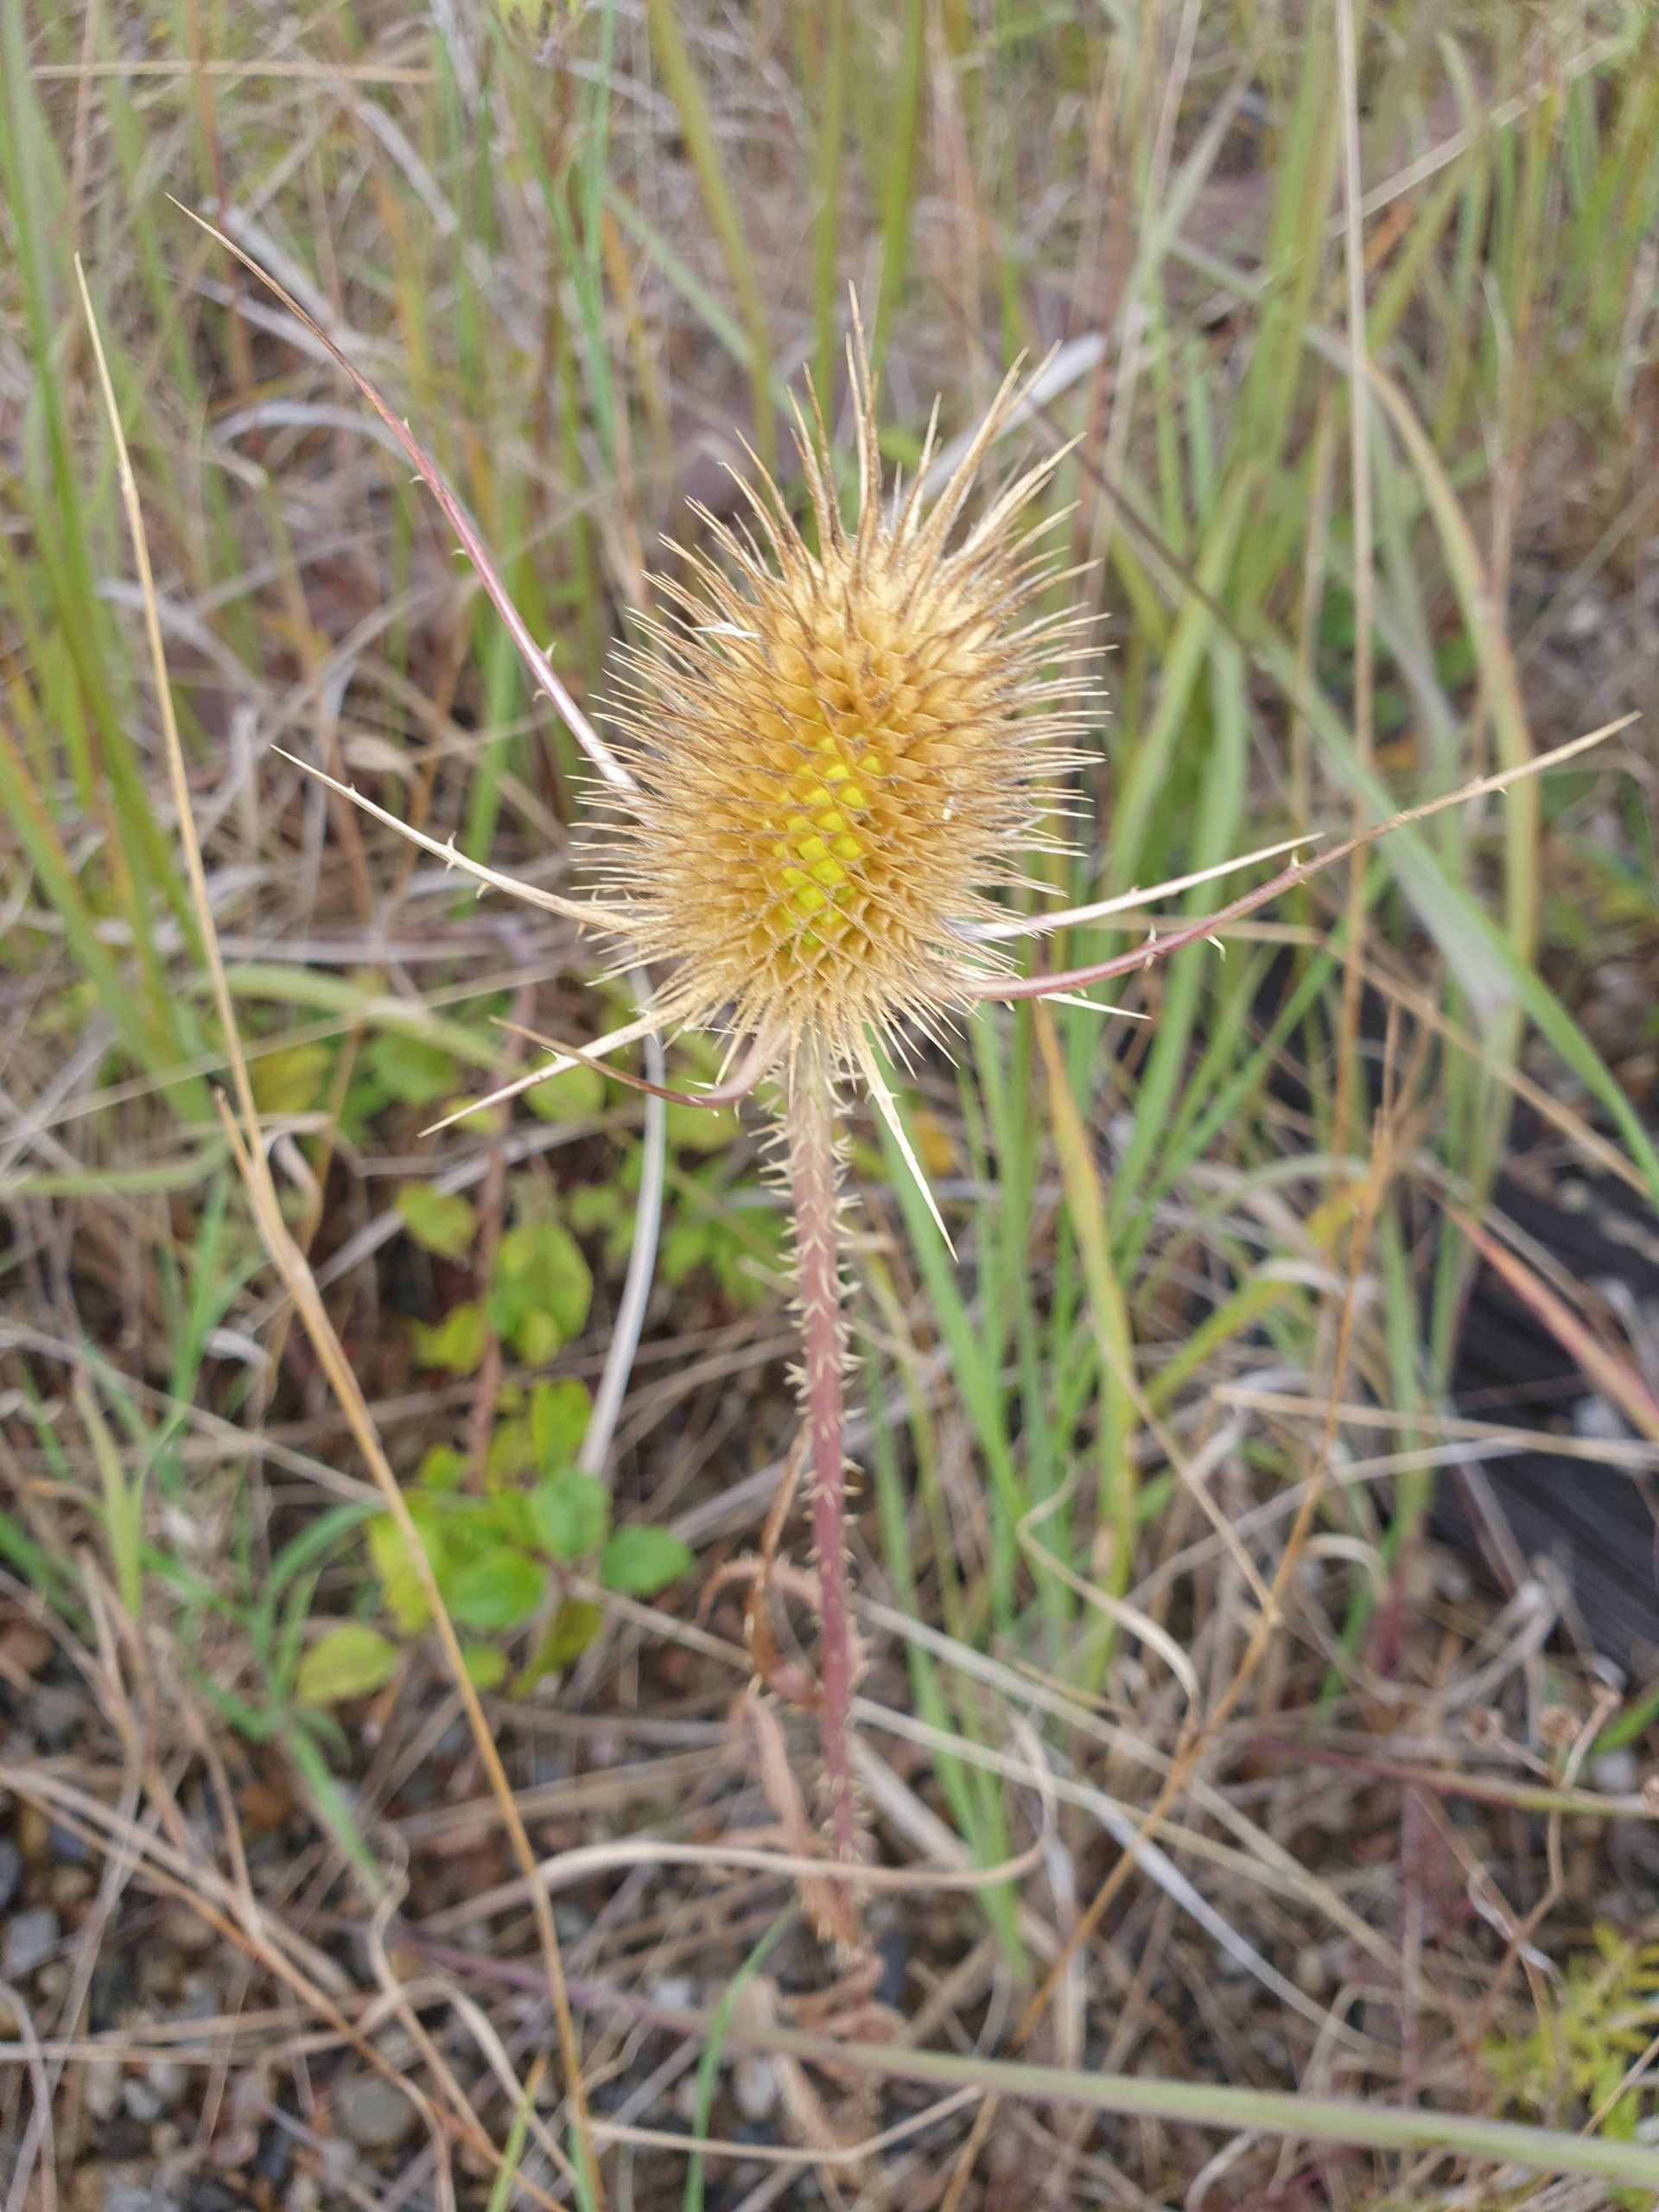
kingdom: Plantae
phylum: Tracheophyta
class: Magnoliopsida
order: Dipsacales
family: Caprifoliaceae
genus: Dipsacus
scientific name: Dipsacus fullonum
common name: Gærde-kartebolle
